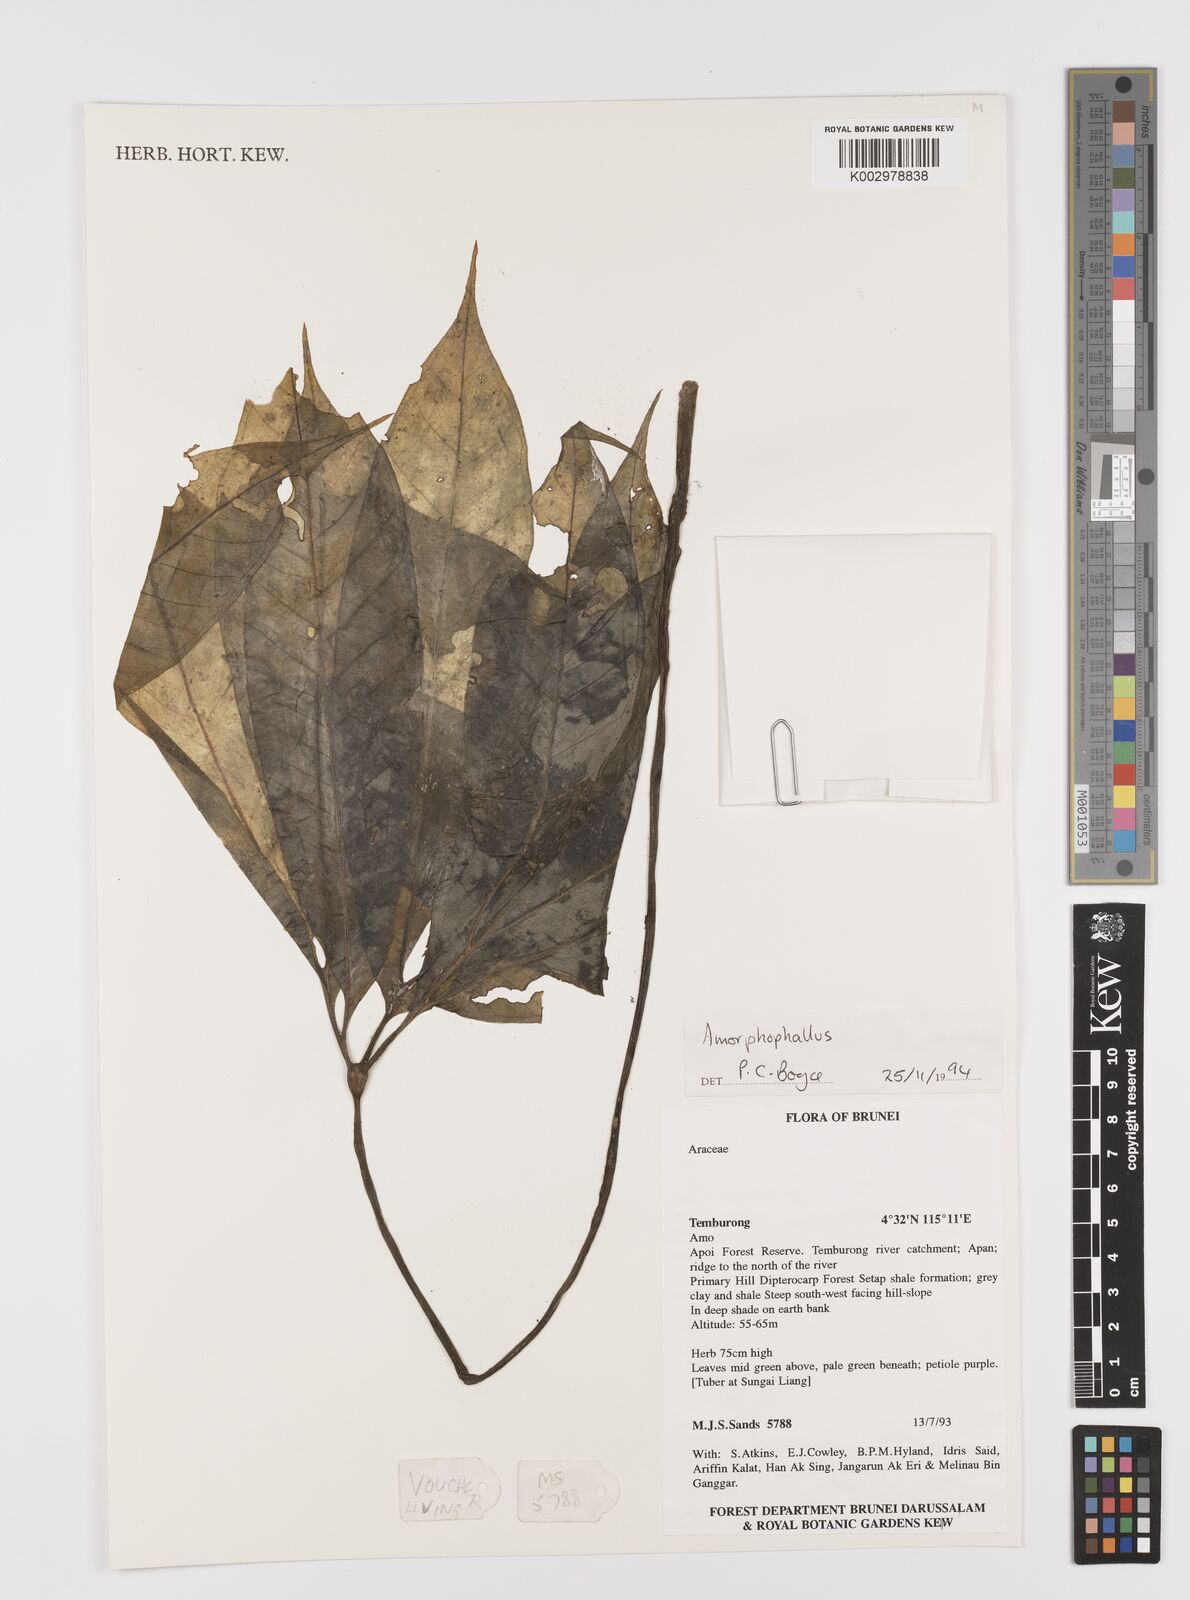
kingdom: Plantae
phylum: Tracheophyta
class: Liliopsida
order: Alismatales
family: Araceae
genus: Amorphophallus
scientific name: Amorphophallus
